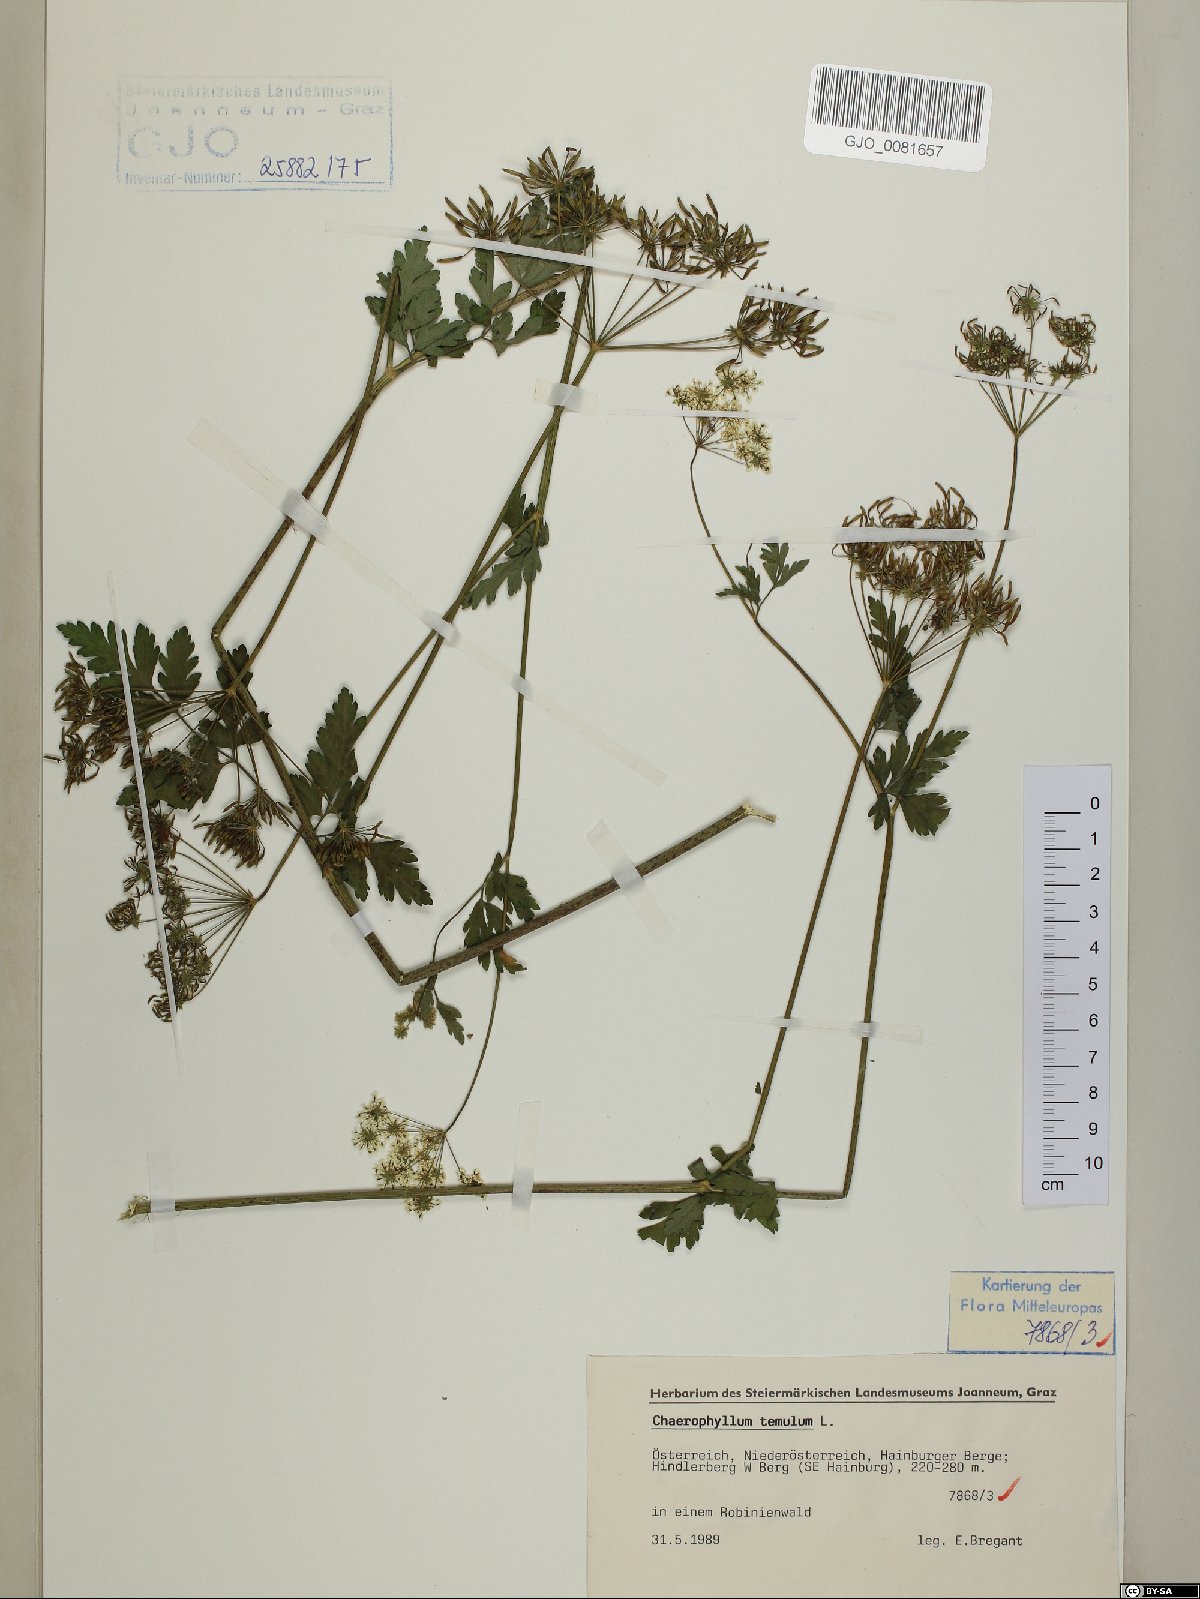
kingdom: Plantae
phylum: Tracheophyta
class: Magnoliopsida
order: Apiales
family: Apiaceae
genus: Chaerophyllum
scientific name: Chaerophyllum temulum
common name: Rough chervil
